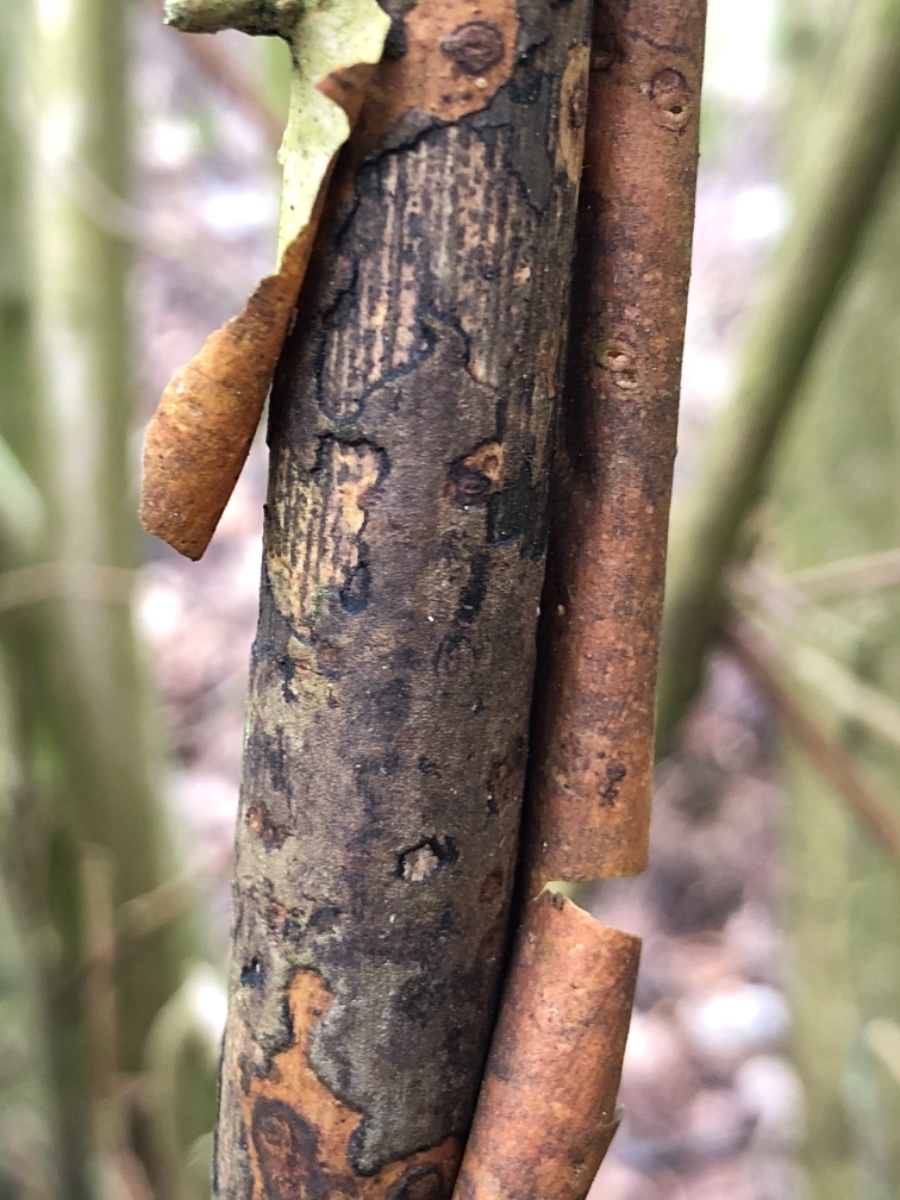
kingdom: Fungi
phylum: Ascomycota
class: Sordariomycetes
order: Xylariales
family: Diatrypaceae
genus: Diatrype
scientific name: Diatrype
